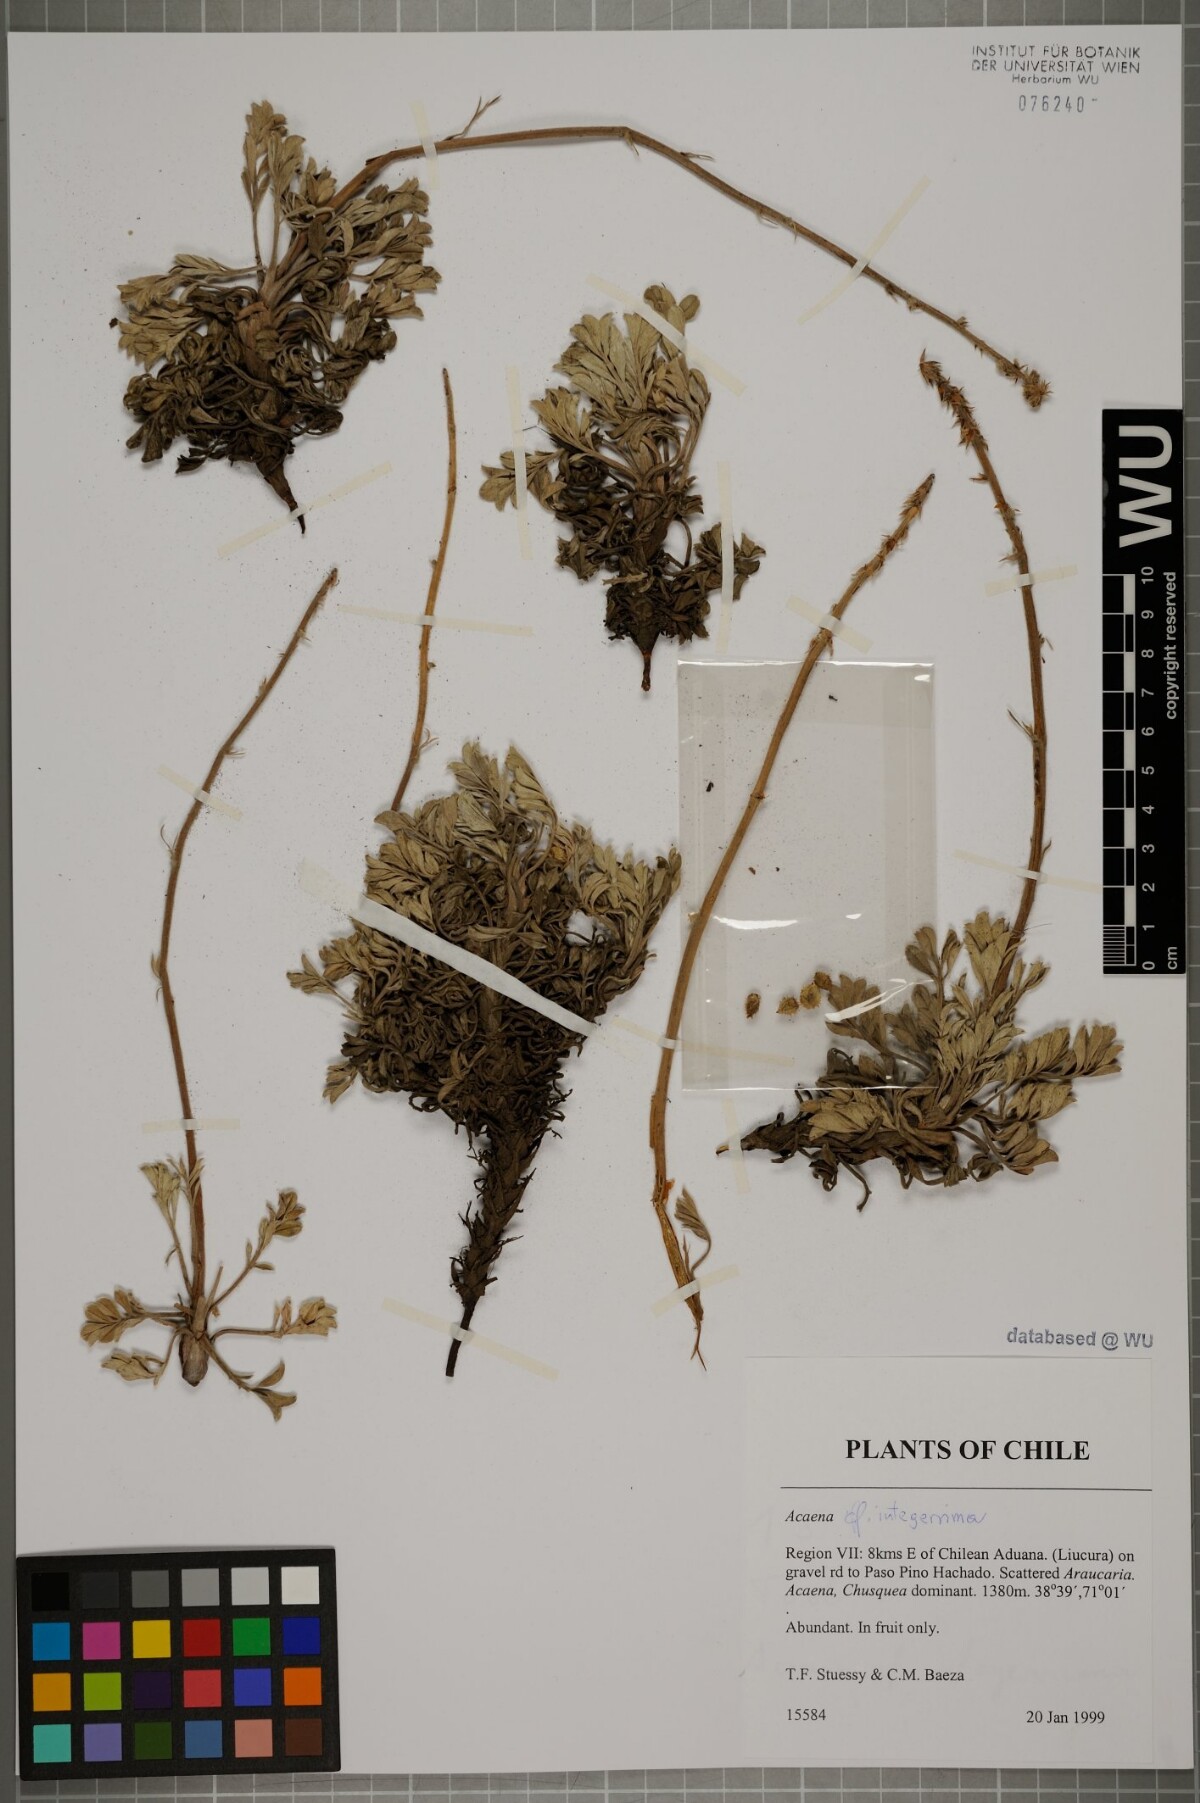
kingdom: Plantae
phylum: Tracheophyta
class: Magnoliopsida
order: Rosales
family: Rosaceae
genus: Acaena
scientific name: Acaena integerrima
